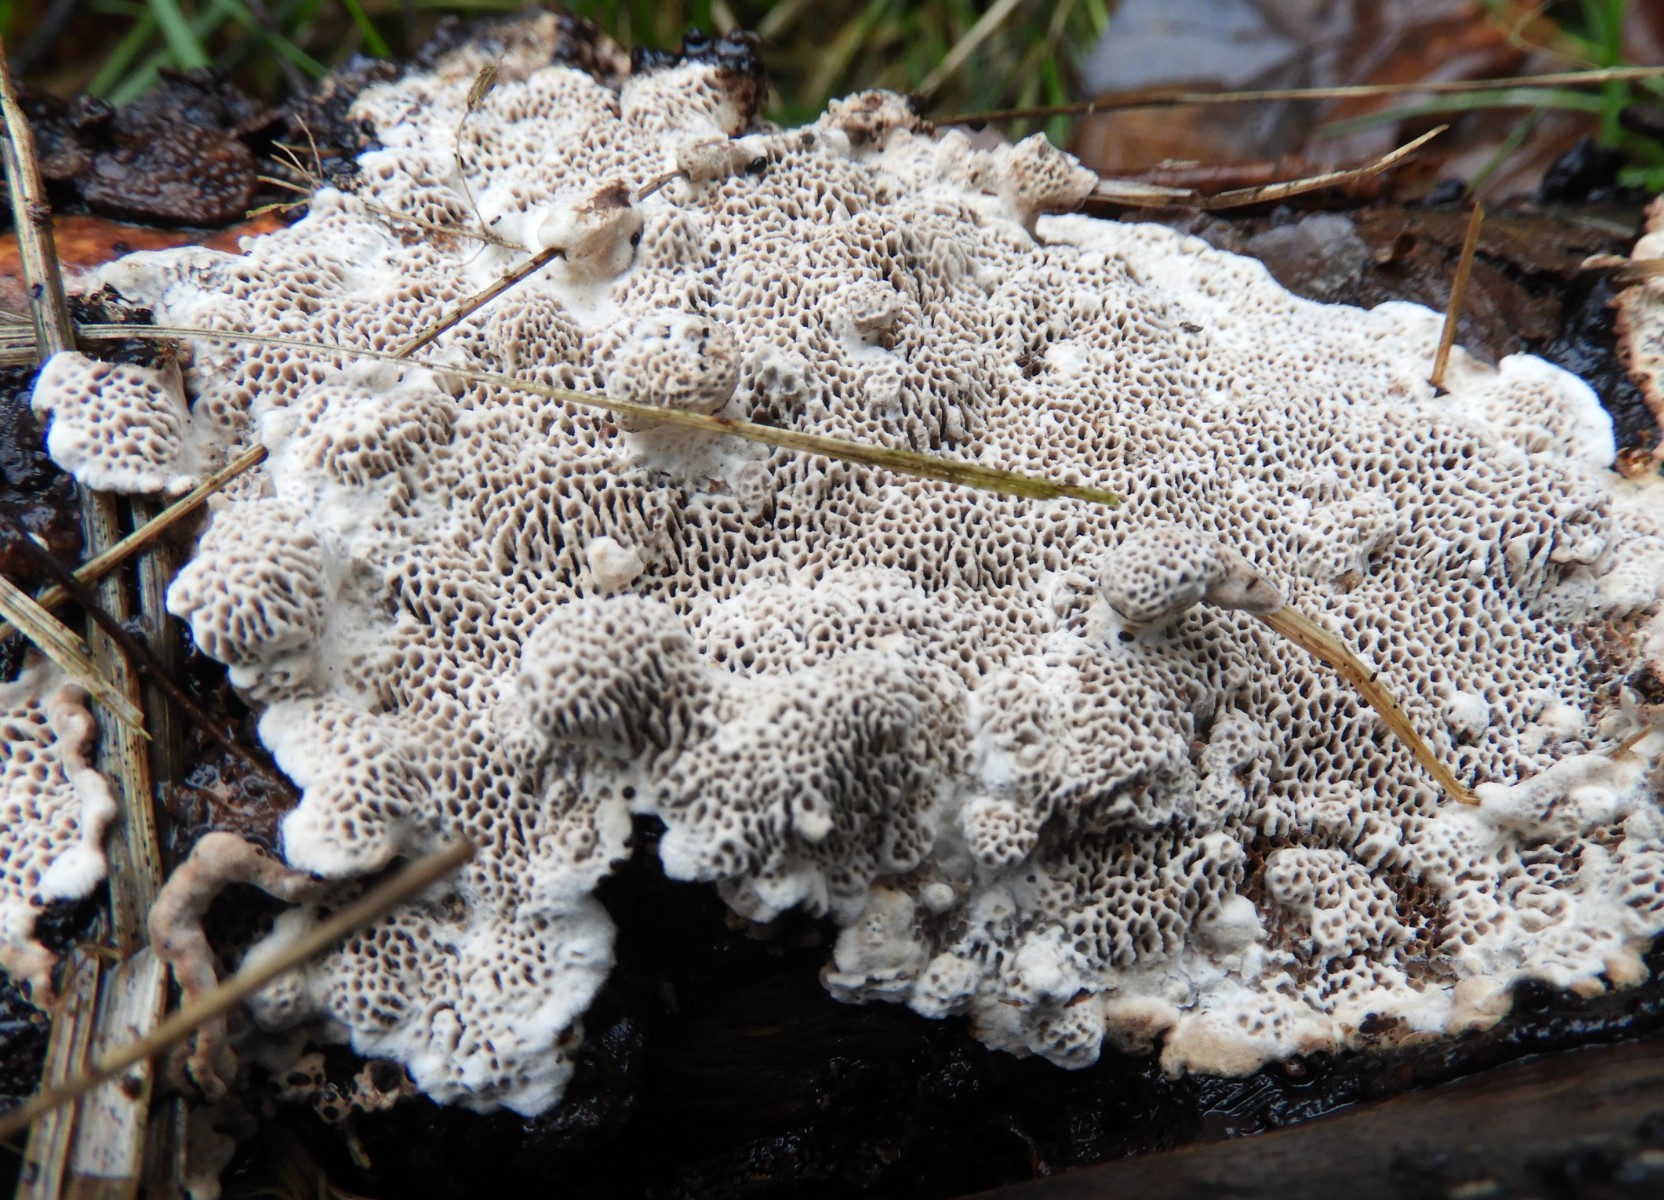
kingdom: Fungi
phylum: Basidiomycota
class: Agaricomycetes
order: Polyporales
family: Polyporaceae
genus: Podofomes
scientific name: Podofomes mollis
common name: blød begporesvamp
